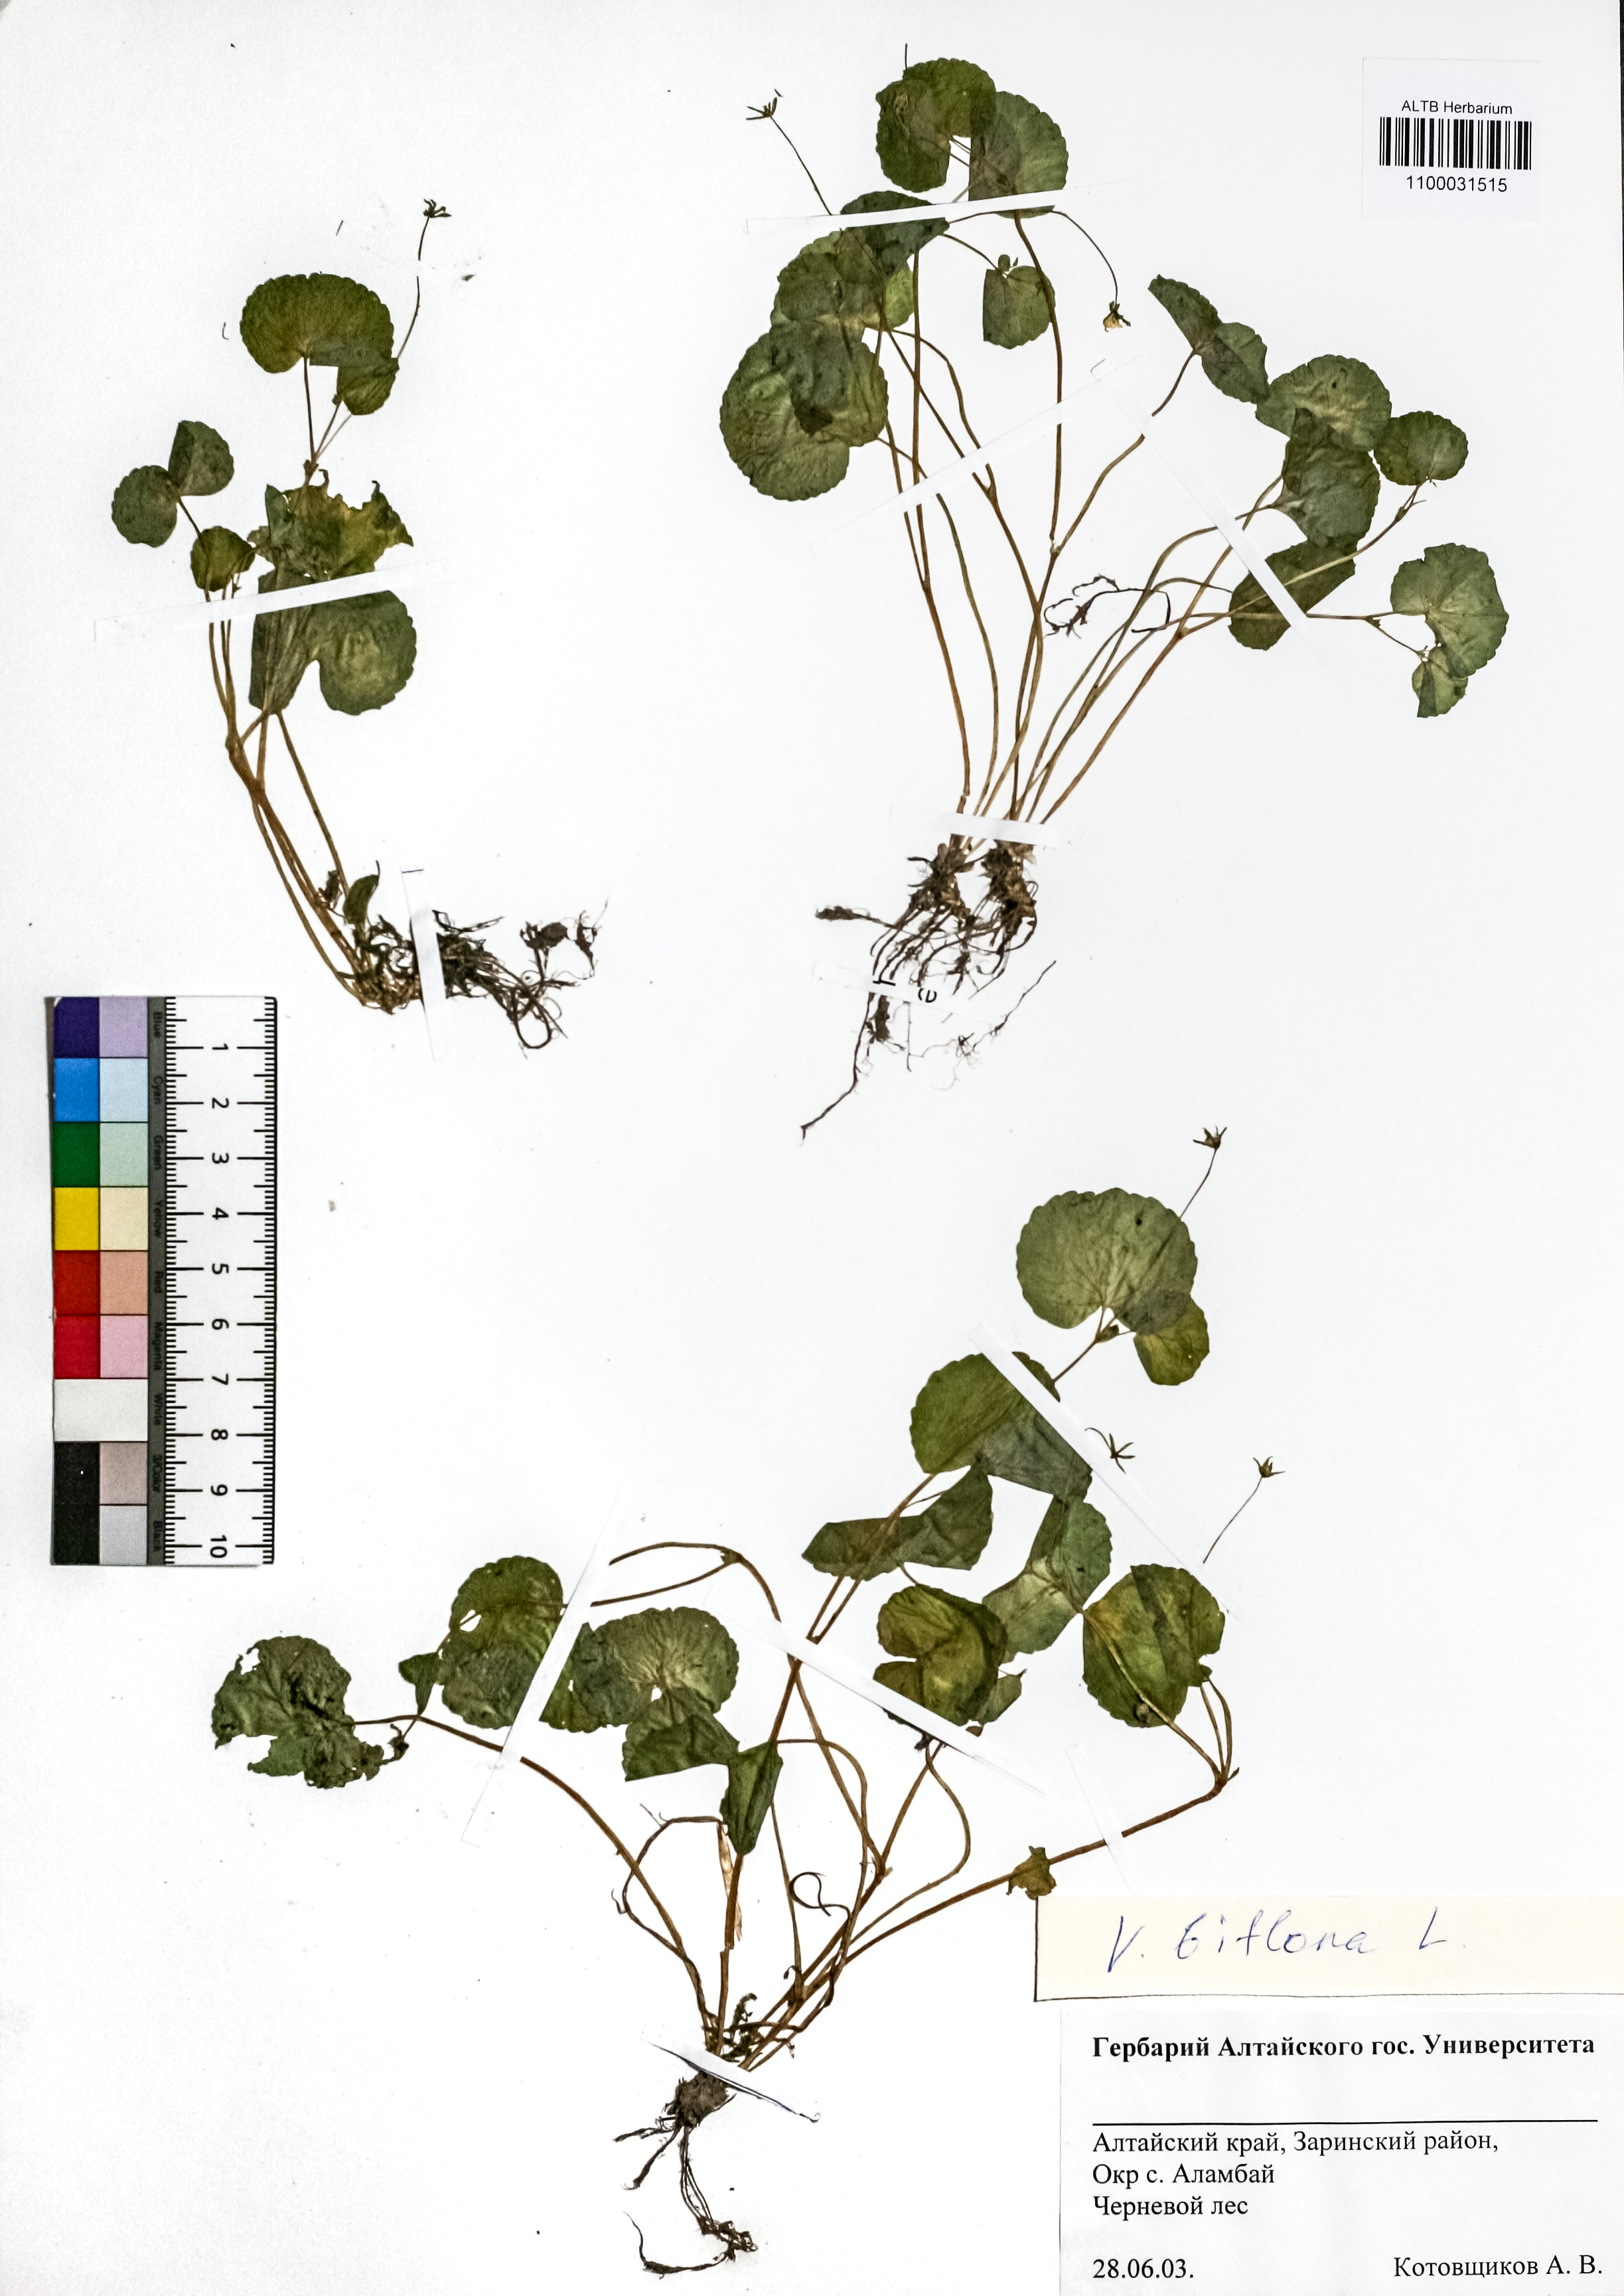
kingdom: Plantae
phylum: Tracheophyta
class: Magnoliopsida
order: Malpighiales
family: Violaceae
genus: Viola
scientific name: Viola biflora
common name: Alpine yellow violet
